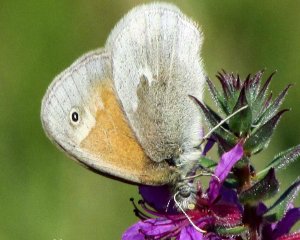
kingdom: Animalia
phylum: Arthropoda
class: Insecta
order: Lepidoptera
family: Nymphalidae
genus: Coenonympha
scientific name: Coenonympha tullia
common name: Large Heath
